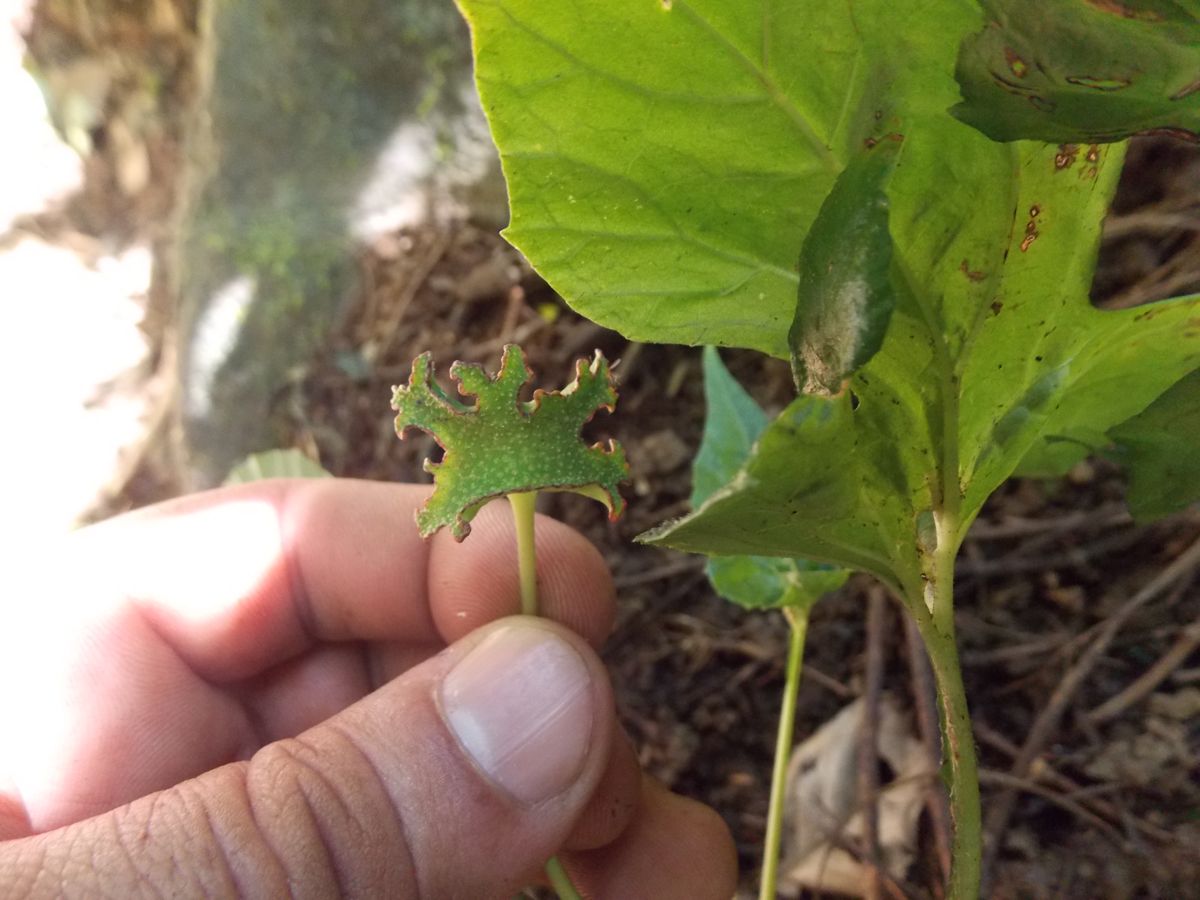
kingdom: Plantae
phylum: Tracheophyta
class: Magnoliopsida
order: Rosales
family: Moraceae
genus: Dorstenia
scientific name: Dorstenia contrajerva
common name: Tusilla
